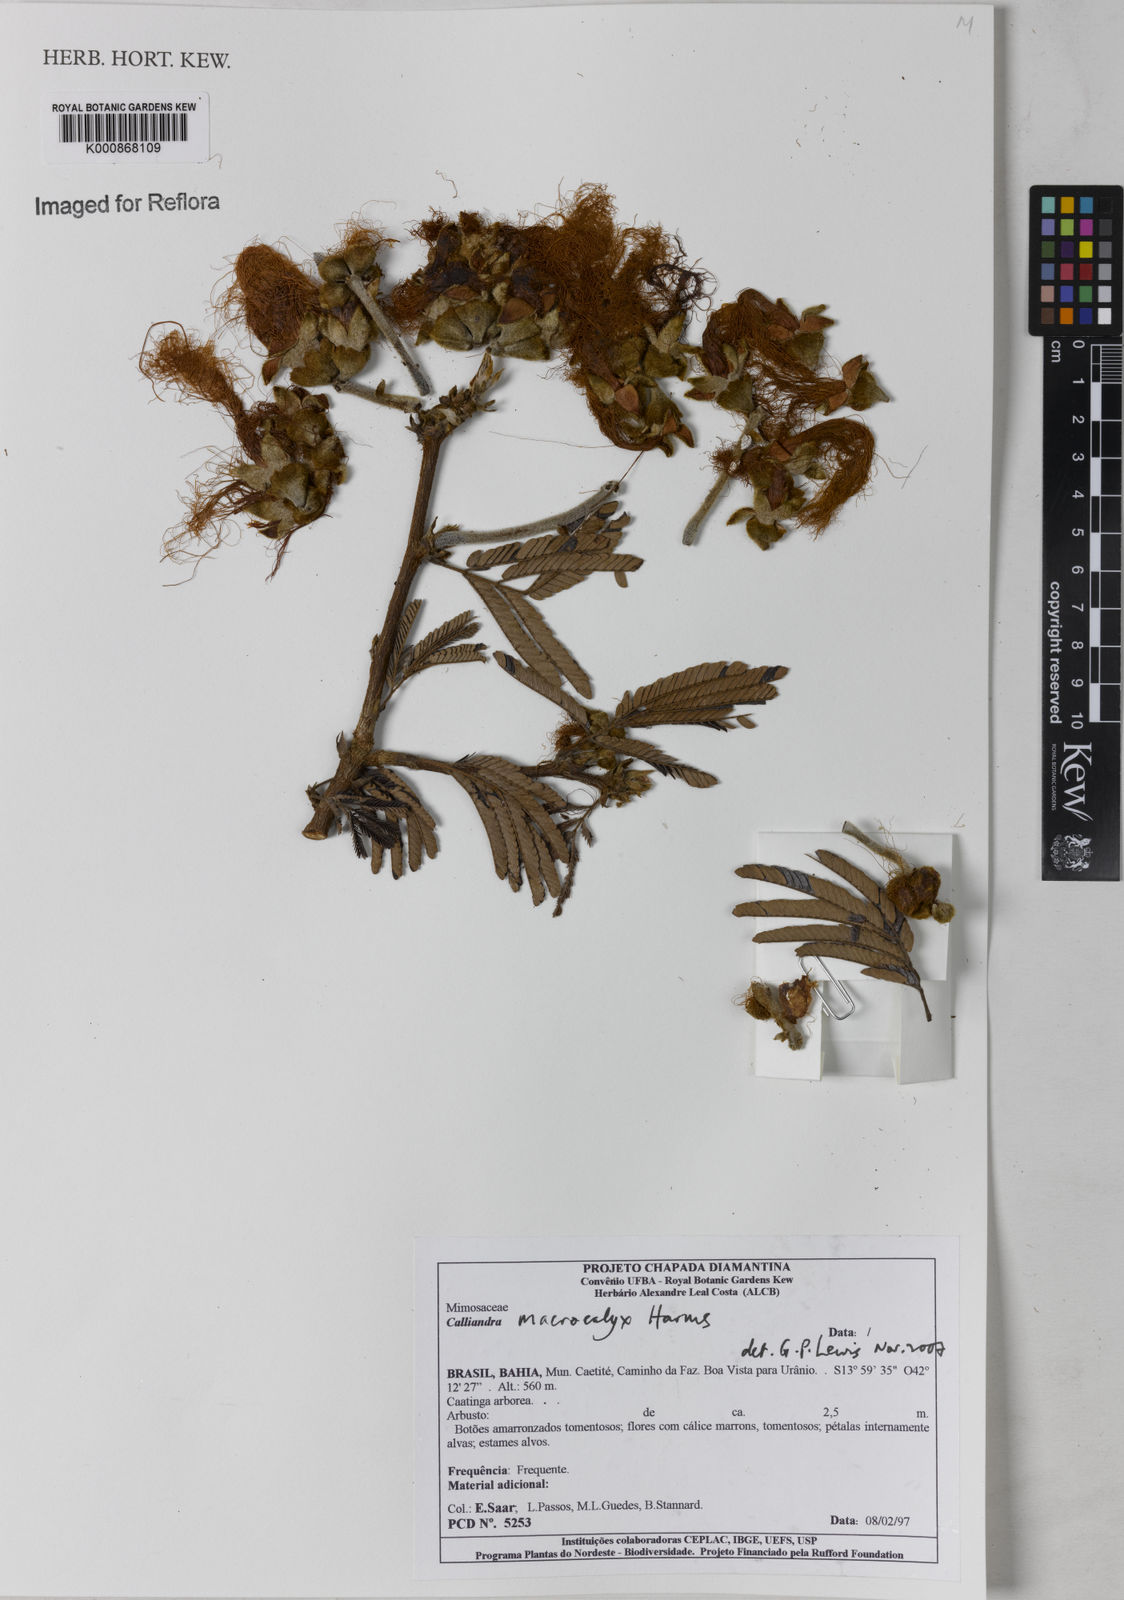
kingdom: Plantae
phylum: Tracheophyta
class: Magnoliopsida
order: Fabales
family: Fabaceae
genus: Calliandra
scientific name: Calliandra macrocalyx
